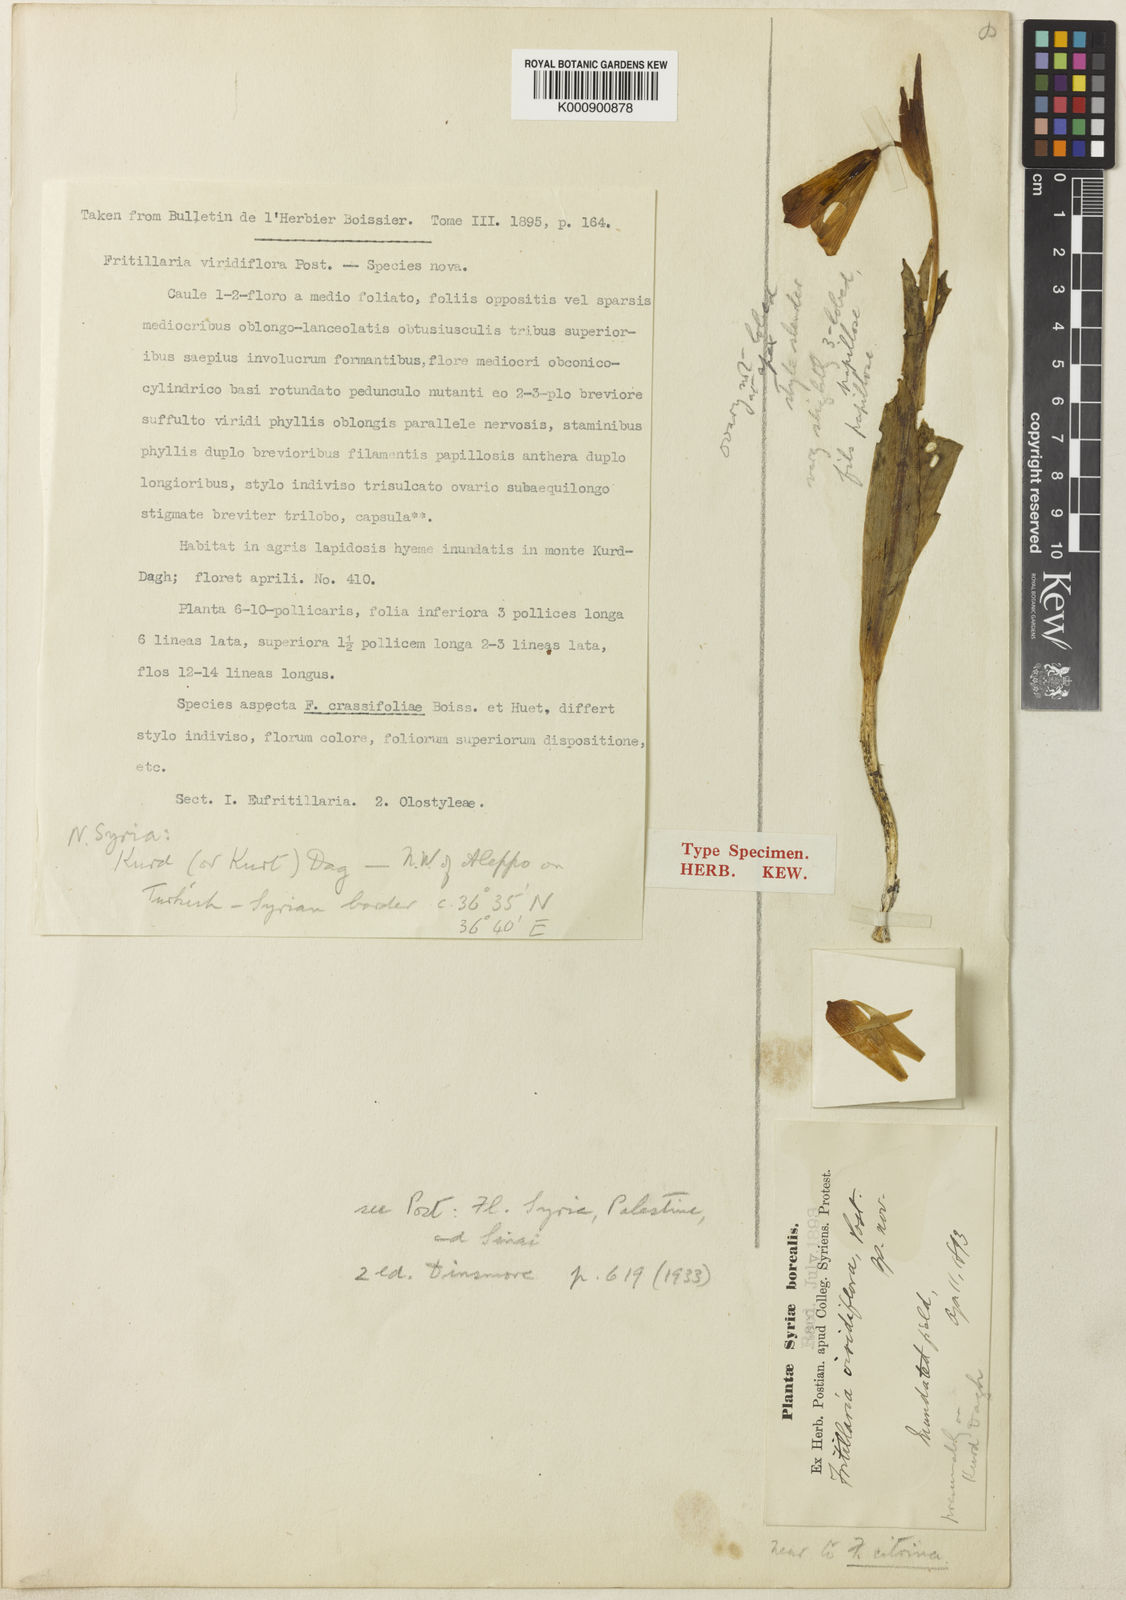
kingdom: Plantae
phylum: Tracheophyta
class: Liliopsida
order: Liliales
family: Liliaceae
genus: Fritillaria
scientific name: Fritillaria viridiflora
